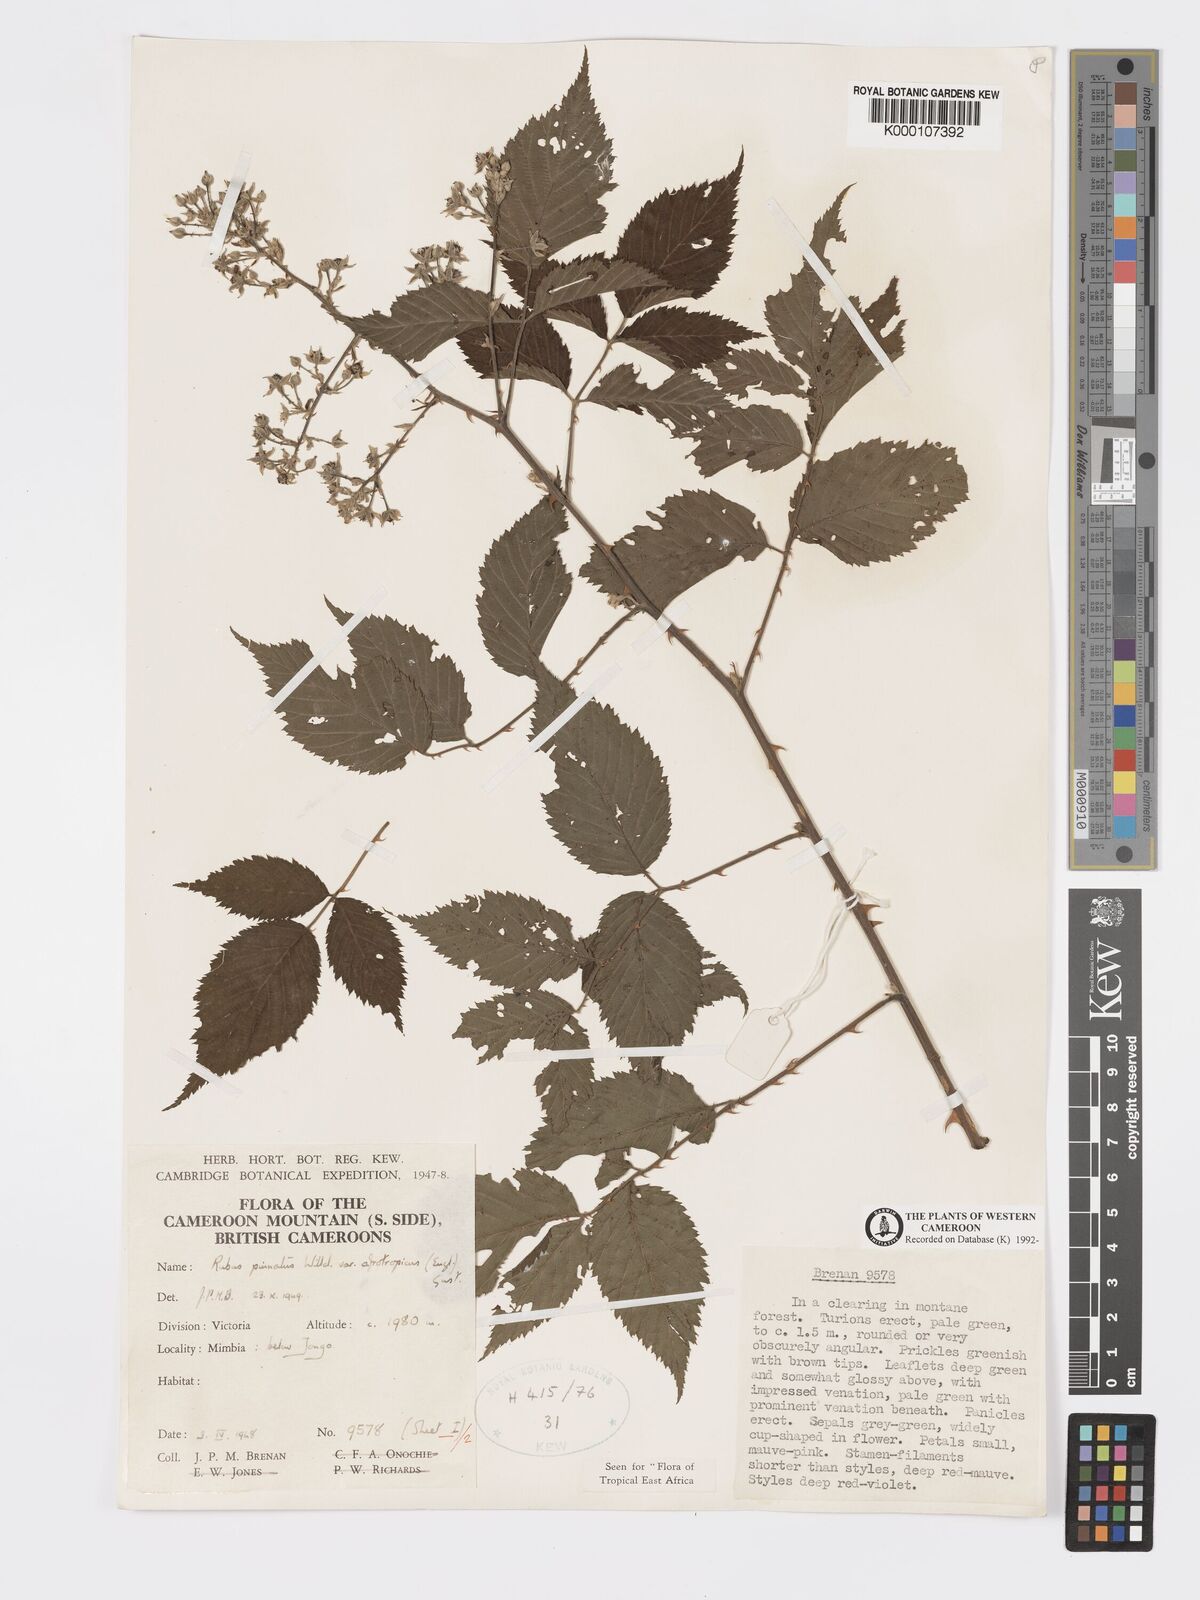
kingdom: Plantae
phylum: Tracheophyta
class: Magnoliopsida
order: Rosales
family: Rosaceae
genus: Rubus
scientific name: Rubus pinnatus
